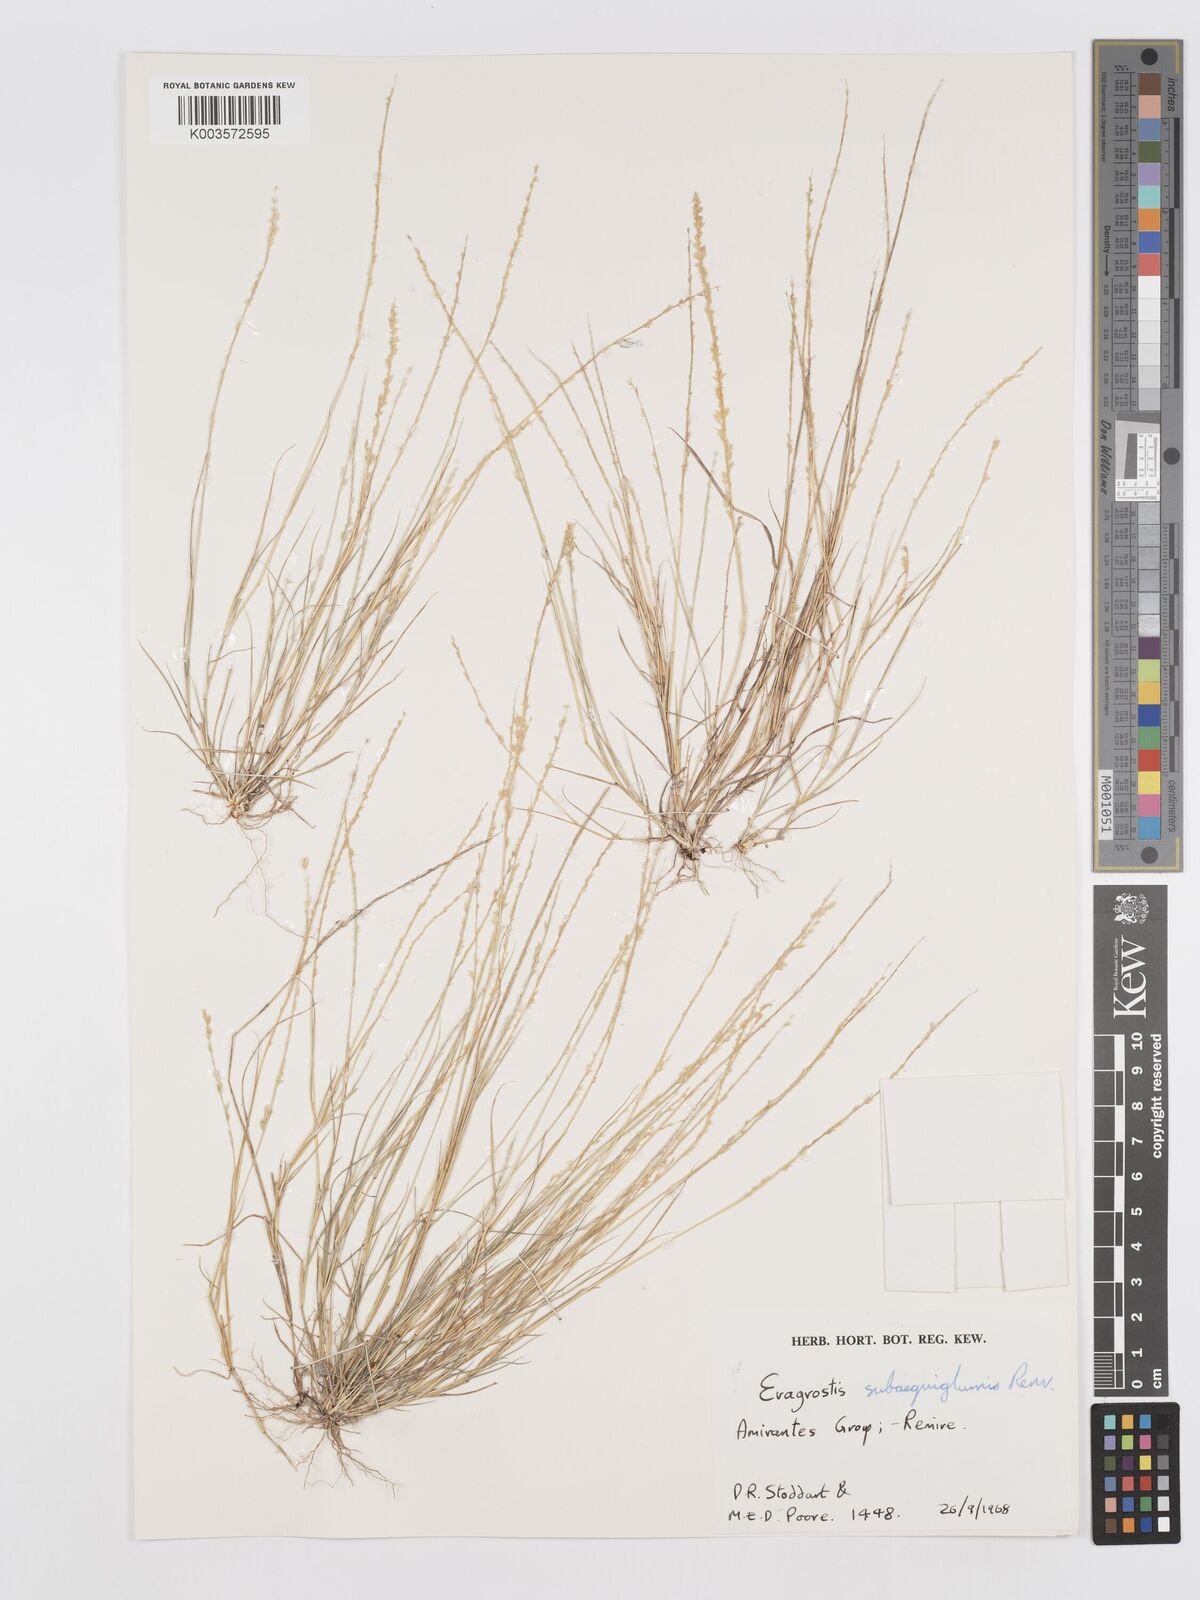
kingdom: Plantae
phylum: Tracheophyta
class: Liliopsida
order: Poales
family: Poaceae
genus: Eragrostis
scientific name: Eragrostis subaequiglumis
